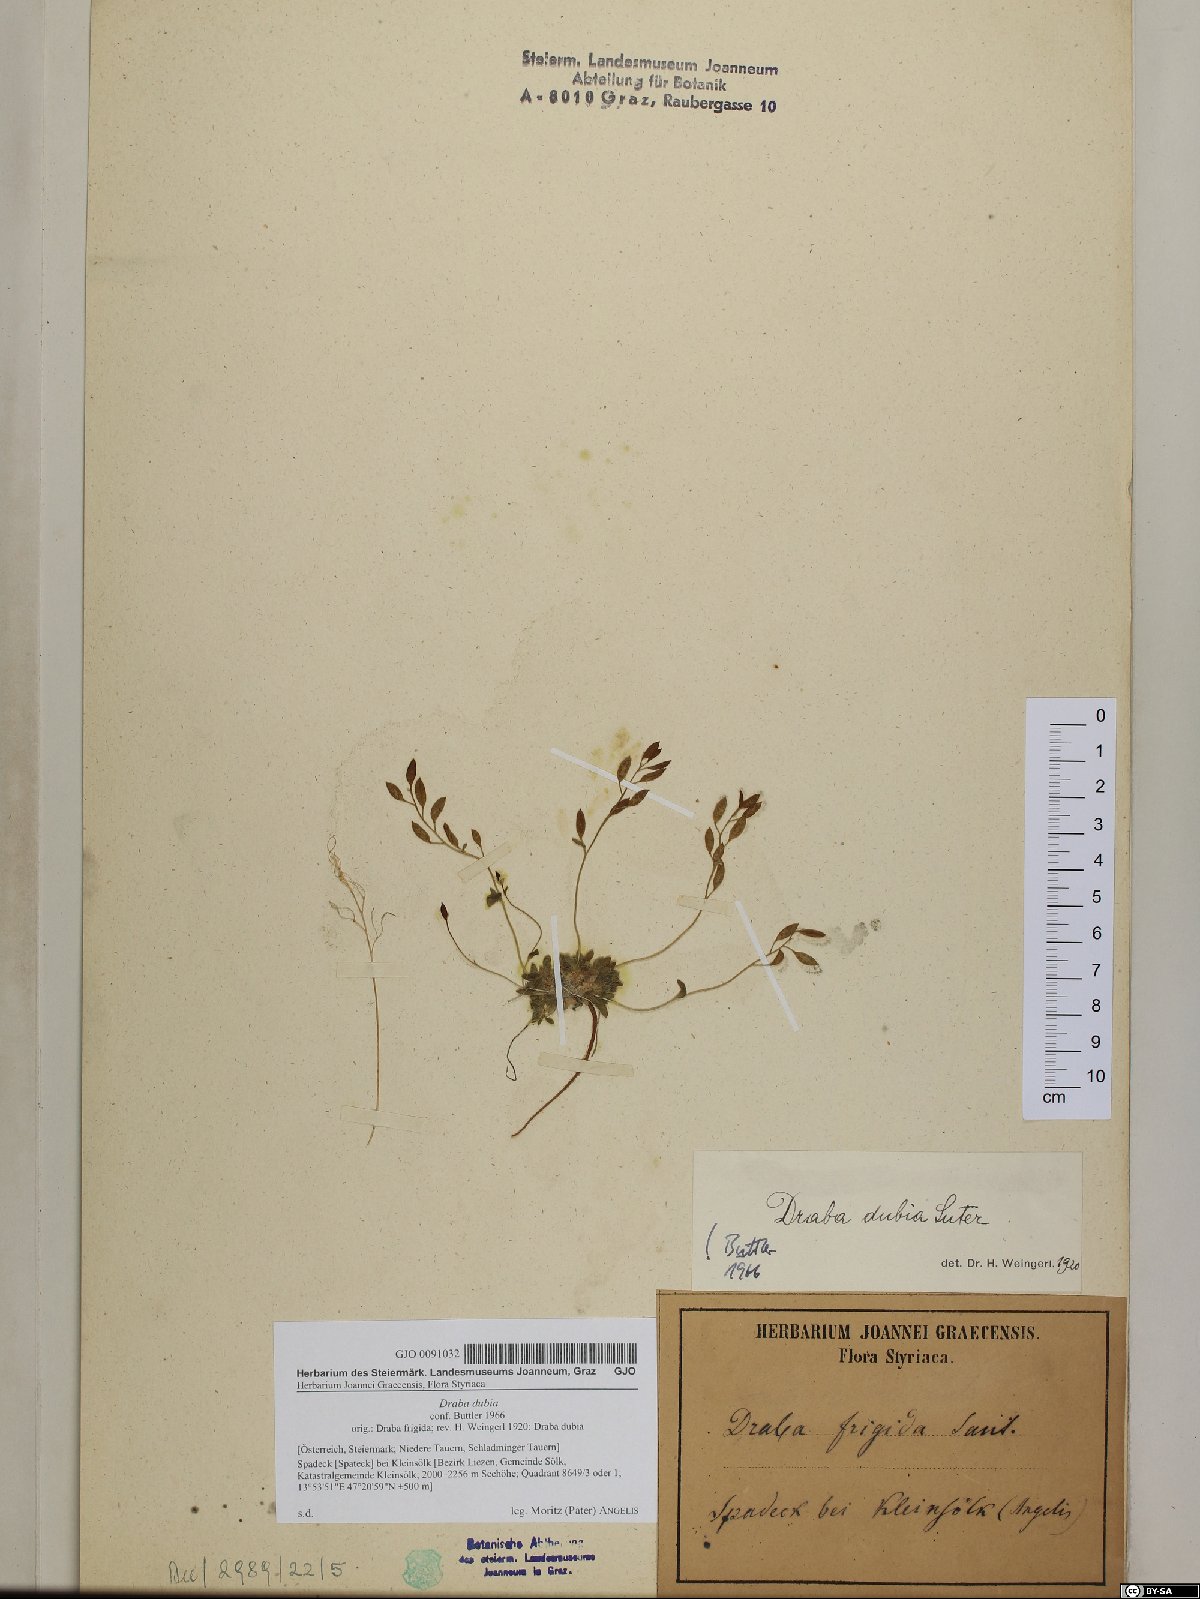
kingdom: Plantae
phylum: Tracheophyta
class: Magnoliopsida
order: Brassicales
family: Brassicaceae
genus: Draba
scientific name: Draba dubia
